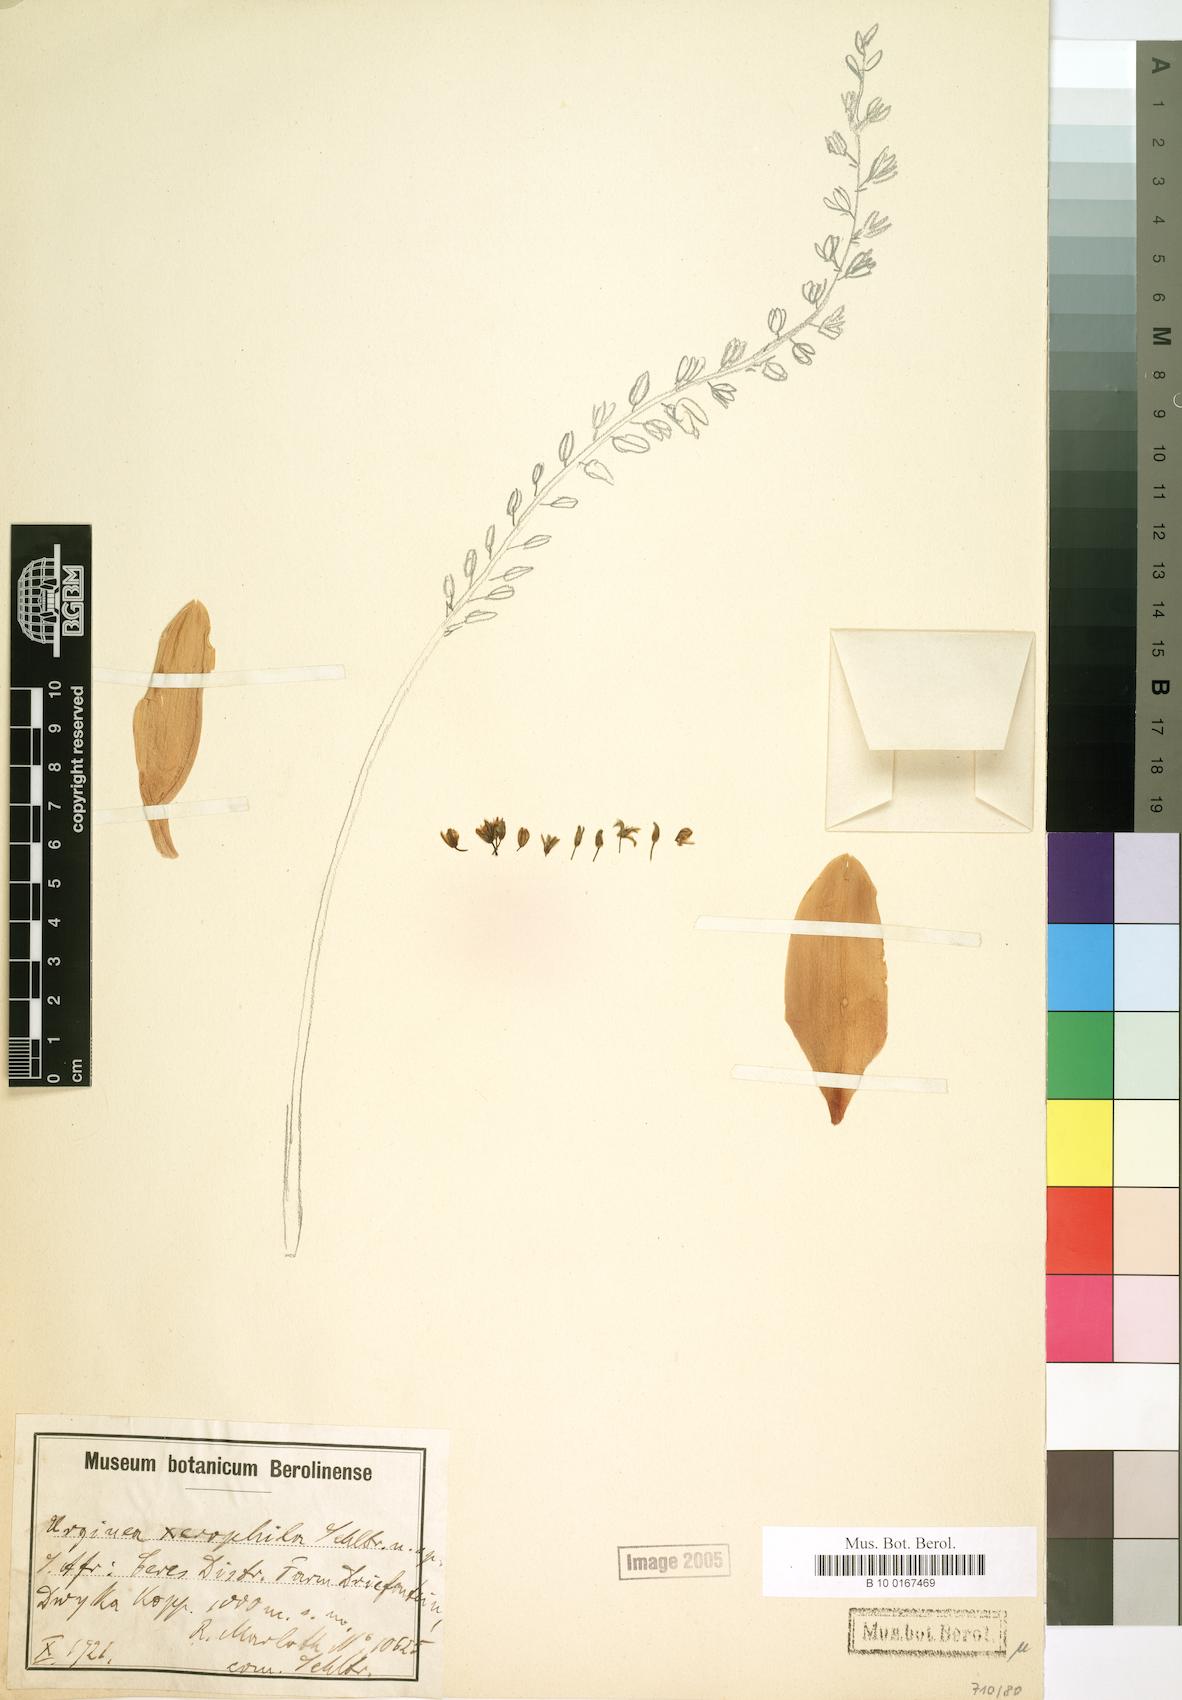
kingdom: Plantae
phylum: Tracheophyta
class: Liliopsida
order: Asparagales
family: Asparagaceae
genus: Lachenalia
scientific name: Lachenalia xerophila
